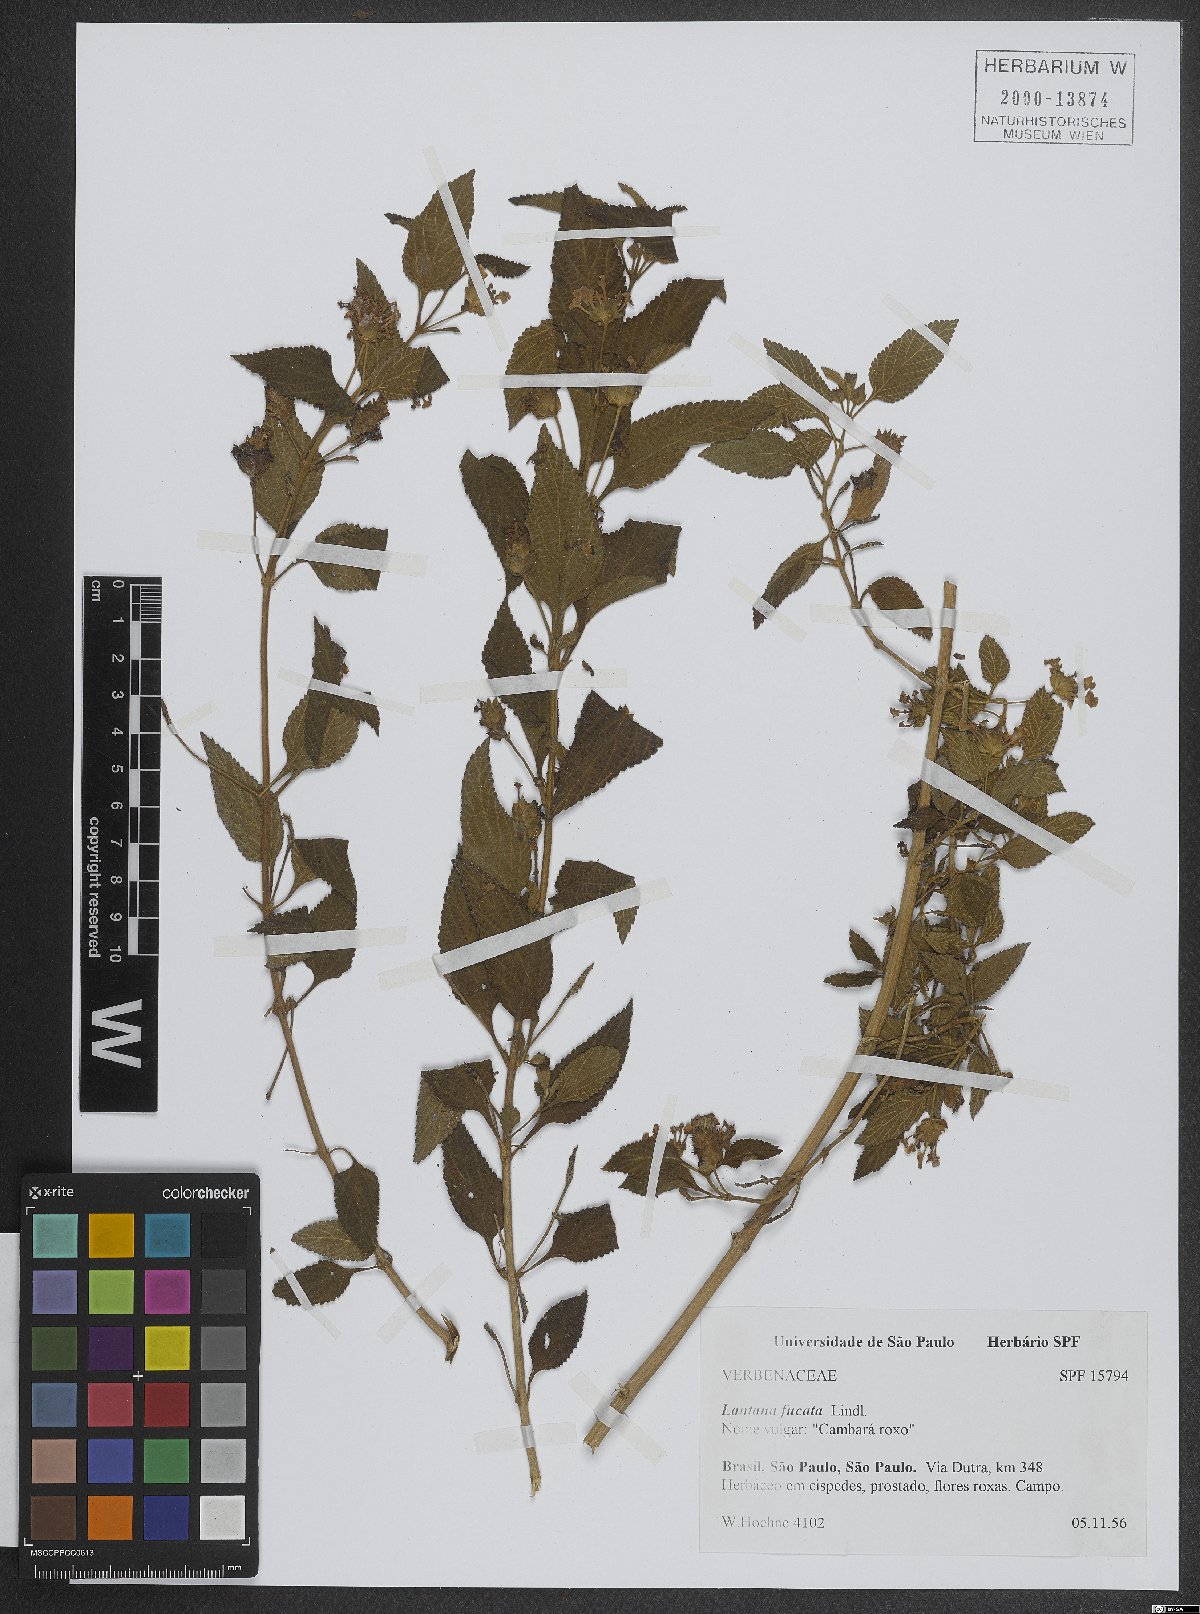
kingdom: Plantae
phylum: Tracheophyta
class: Magnoliopsida
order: Lamiales
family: Verbenaceae
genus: Lantana
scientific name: Lantana fucata
